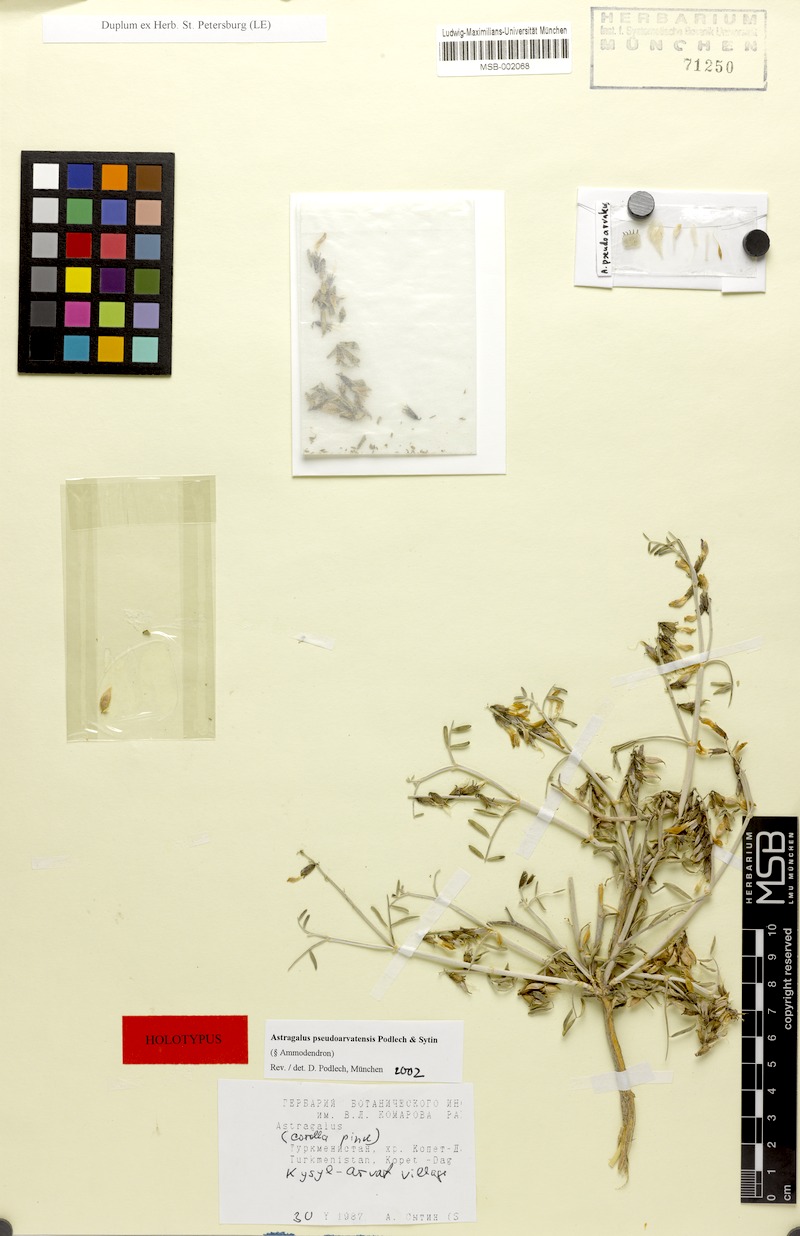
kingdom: Plantae
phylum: Tracheophyta
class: Magnoliopsida
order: Fabales
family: Fabaceae
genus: Astragalus
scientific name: Astragalus pseudoarvatensis
